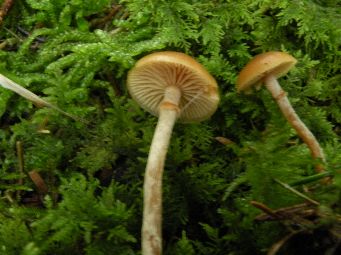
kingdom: Fungi
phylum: Basidiomycota
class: Agaricomycetes
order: Agaricales
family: Hymenogastraceae
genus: Galerina
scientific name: Galerina marginata
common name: randbæltet hjelmhat
